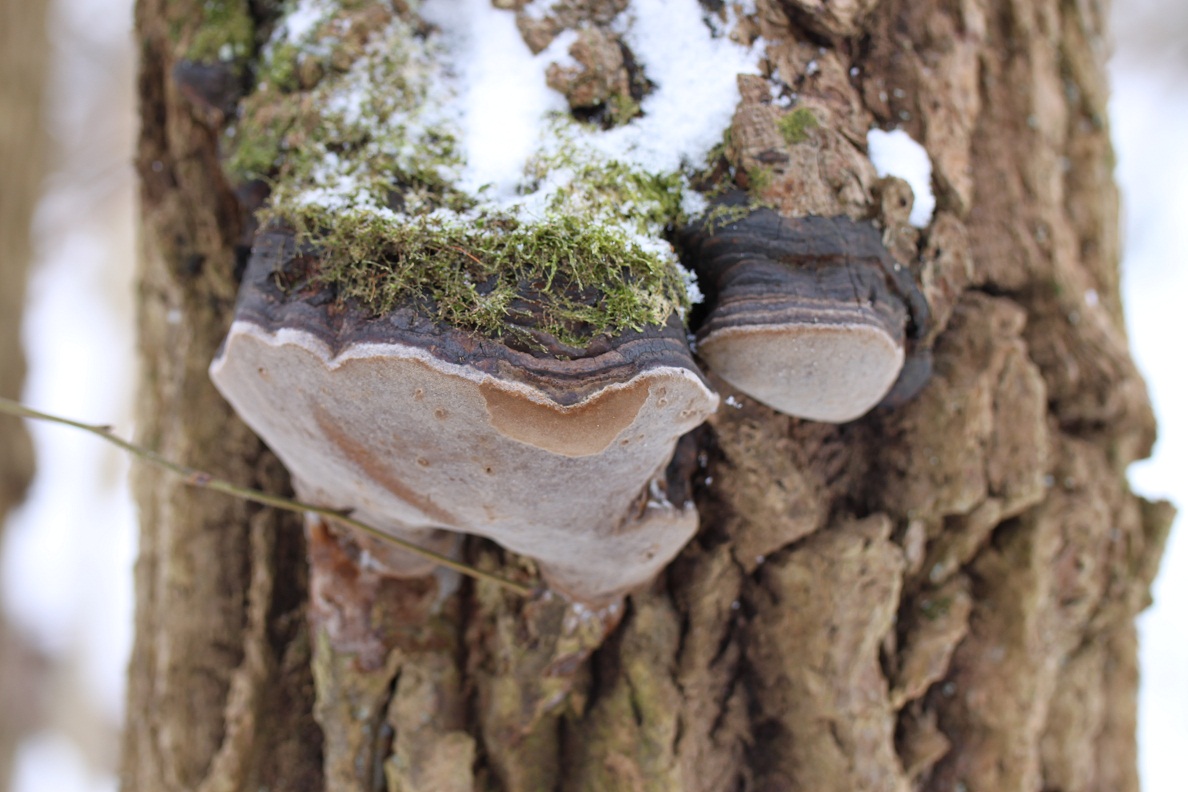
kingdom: Fungi
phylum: Basidiomycota
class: Agaricomycetes
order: Hymenochaetales
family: Hymenochaetaceae
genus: Phellinus
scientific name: Phellinus tremulae
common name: aspe-ildporesvamp
